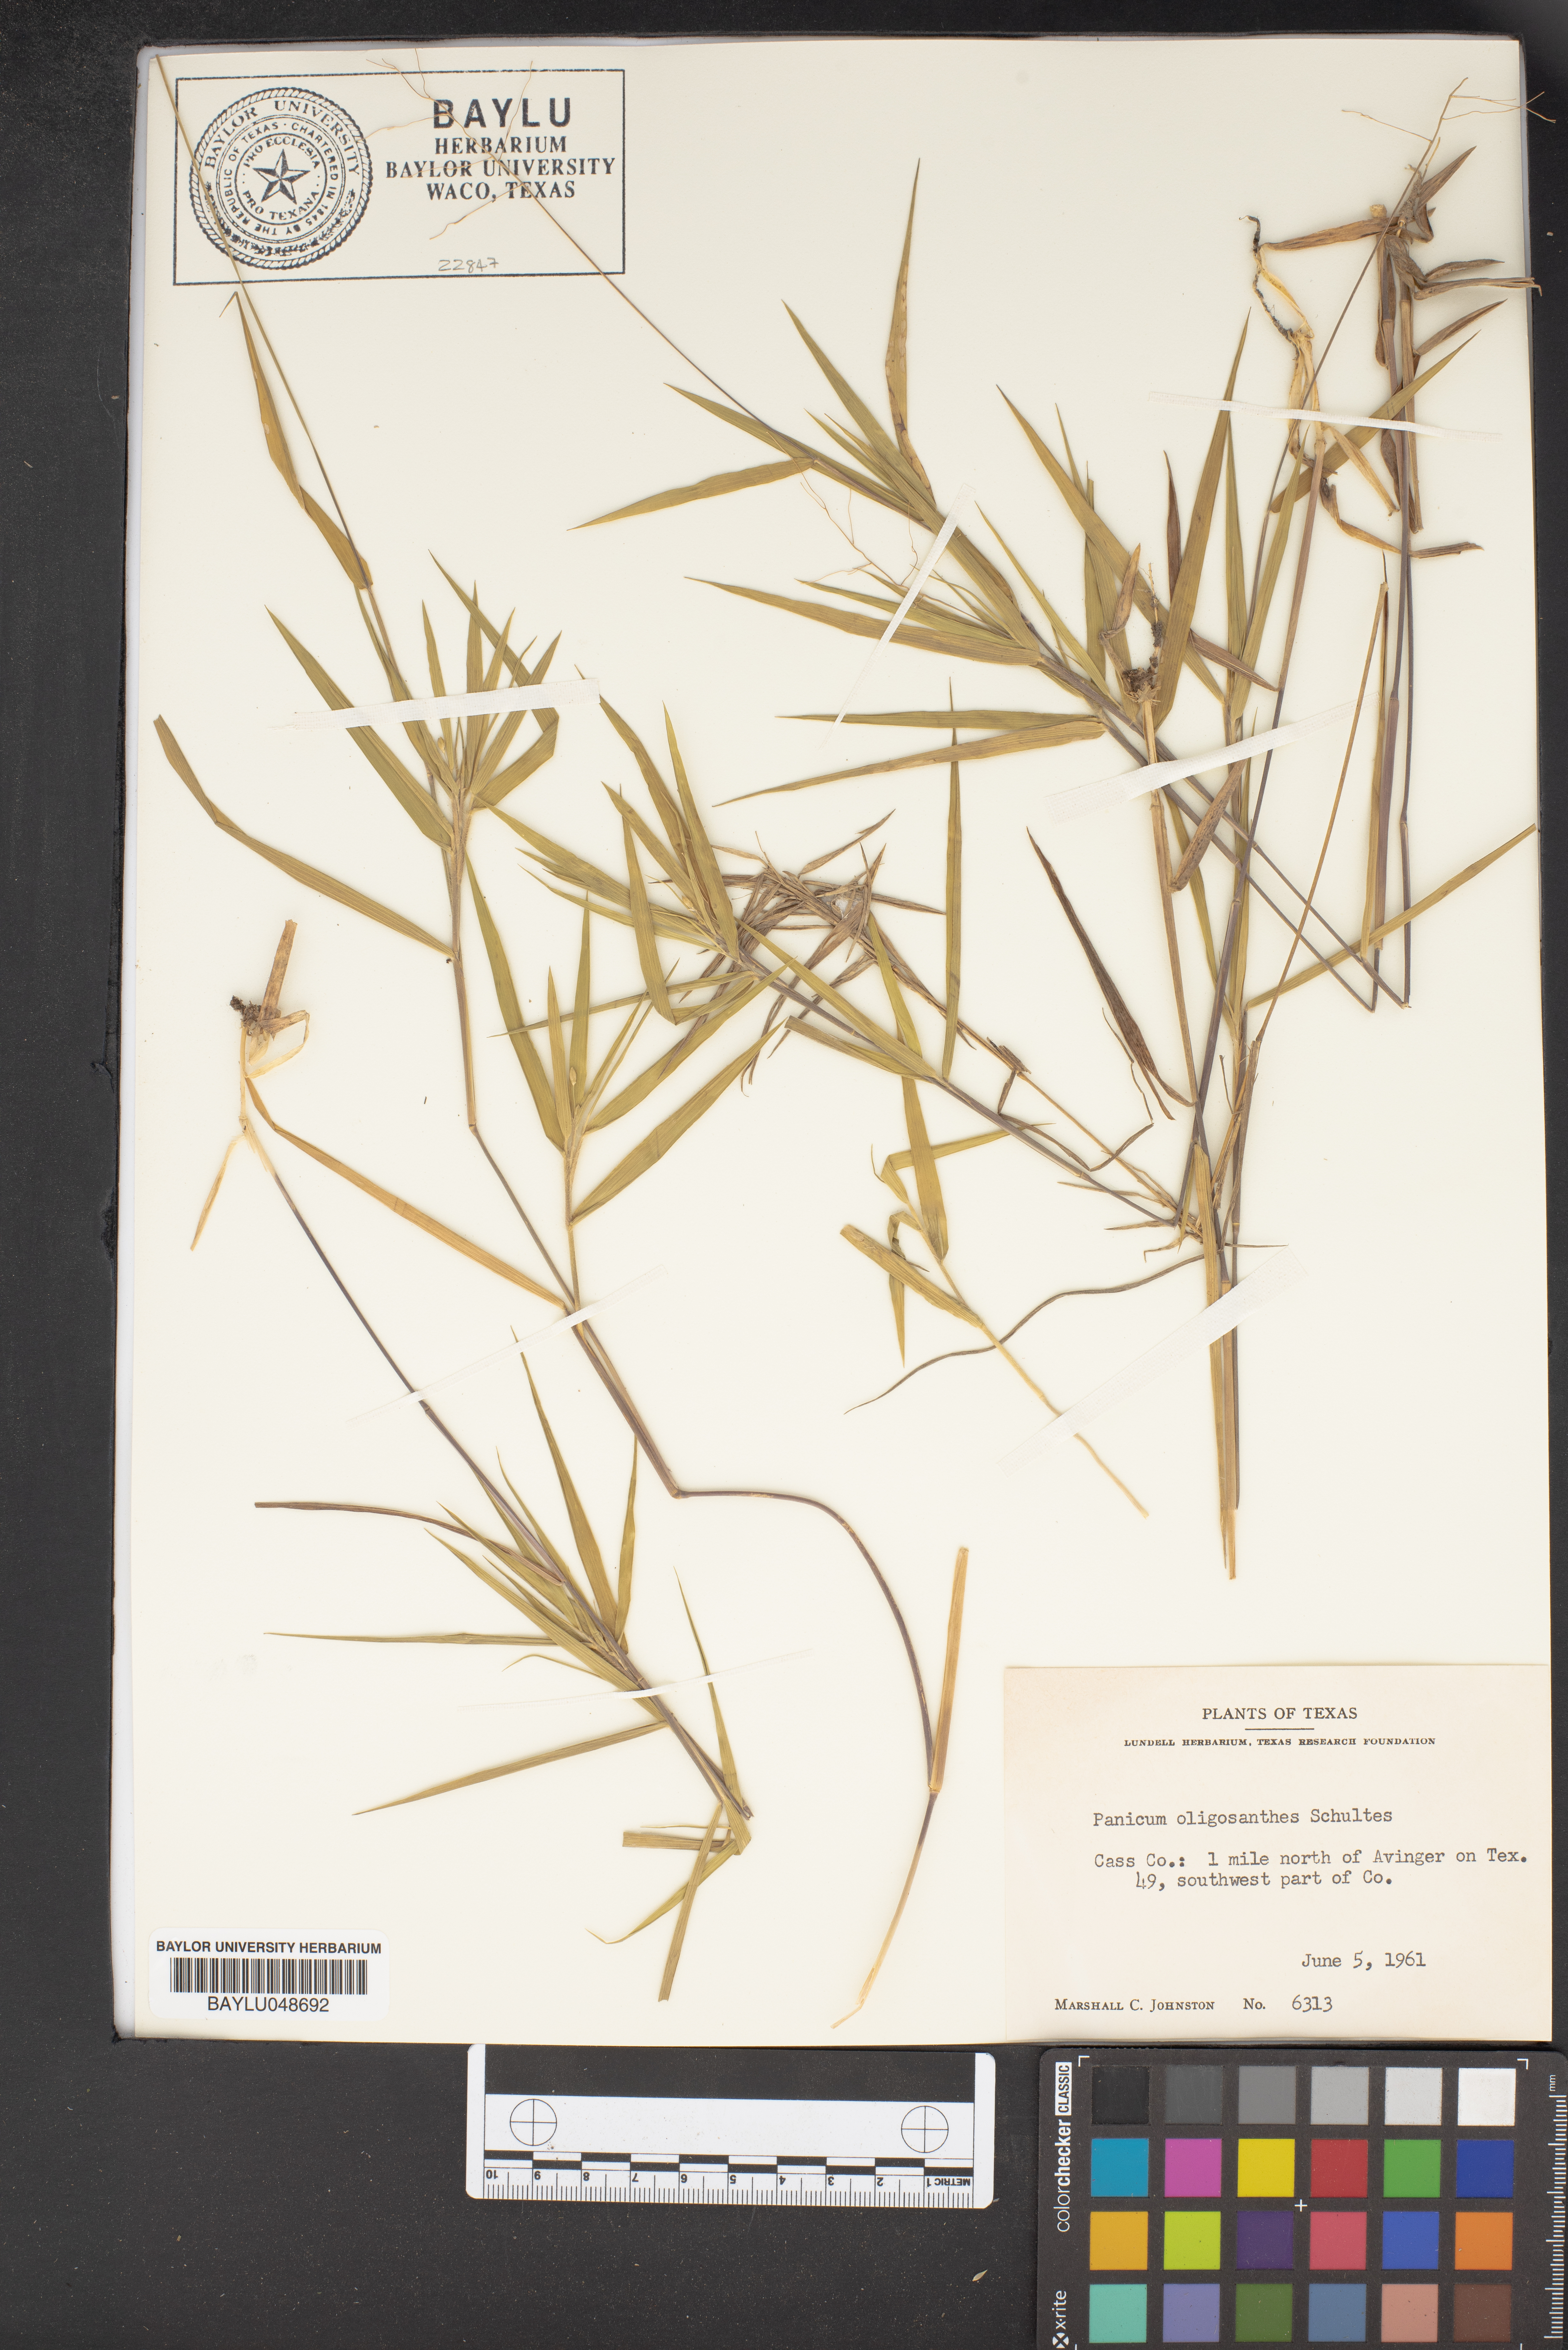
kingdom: Plantae
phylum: Tracheophyta
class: Liliopsida
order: Poales
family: Poaceae
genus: Dichanthelium
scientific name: Dichanthelium oligosanthes
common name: Few-anther obscuregrass
